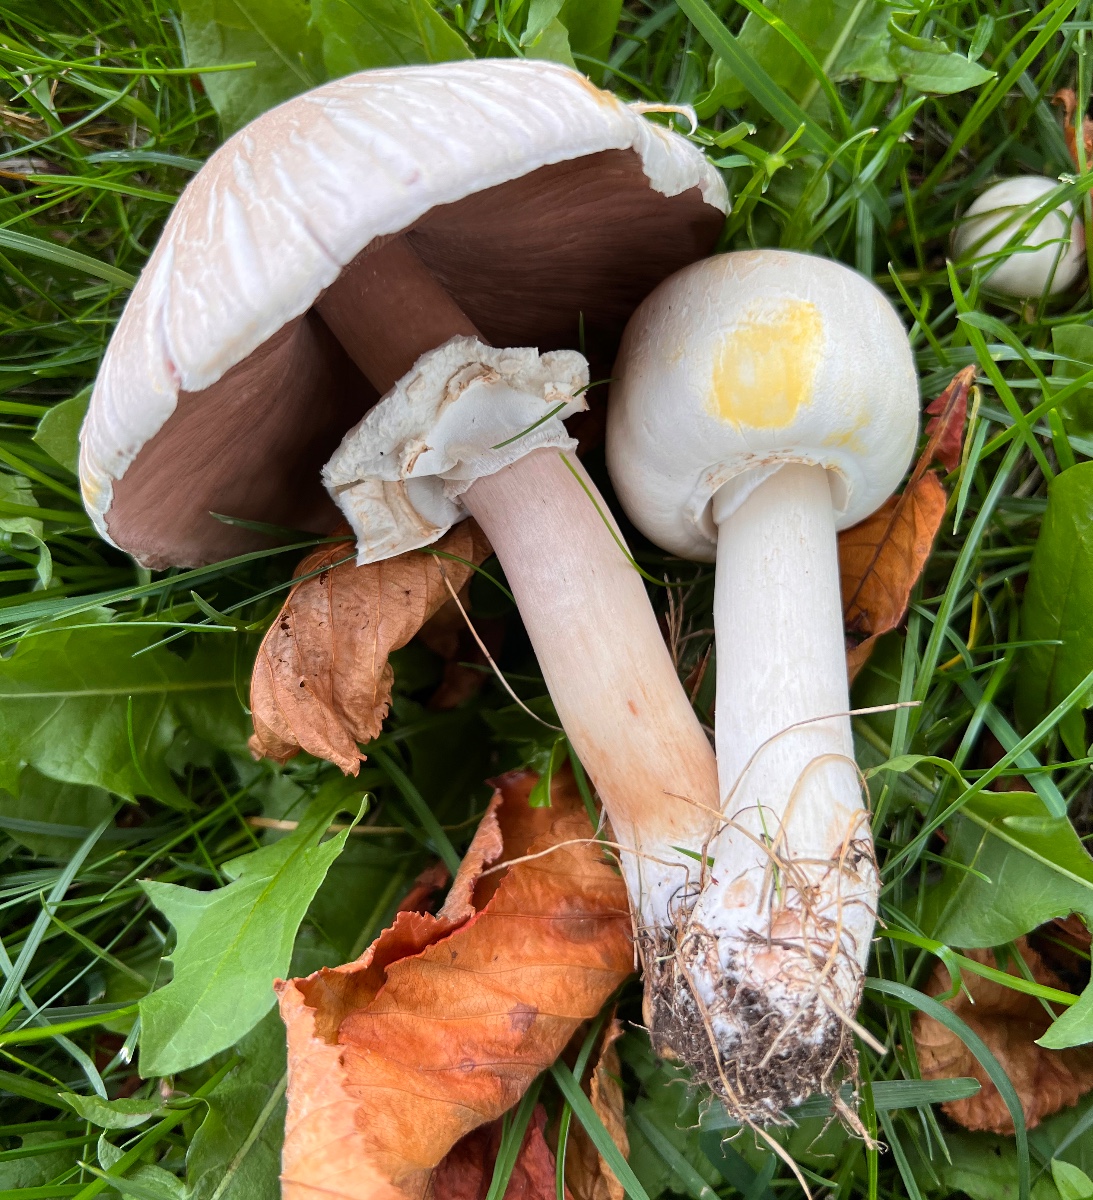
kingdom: Fungi
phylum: Basidiomycota
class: Agaricomycetes
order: Agaricales
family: Agaricaceae
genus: Agaricus
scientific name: Agaricus xanthodermus
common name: karbol-champignon
